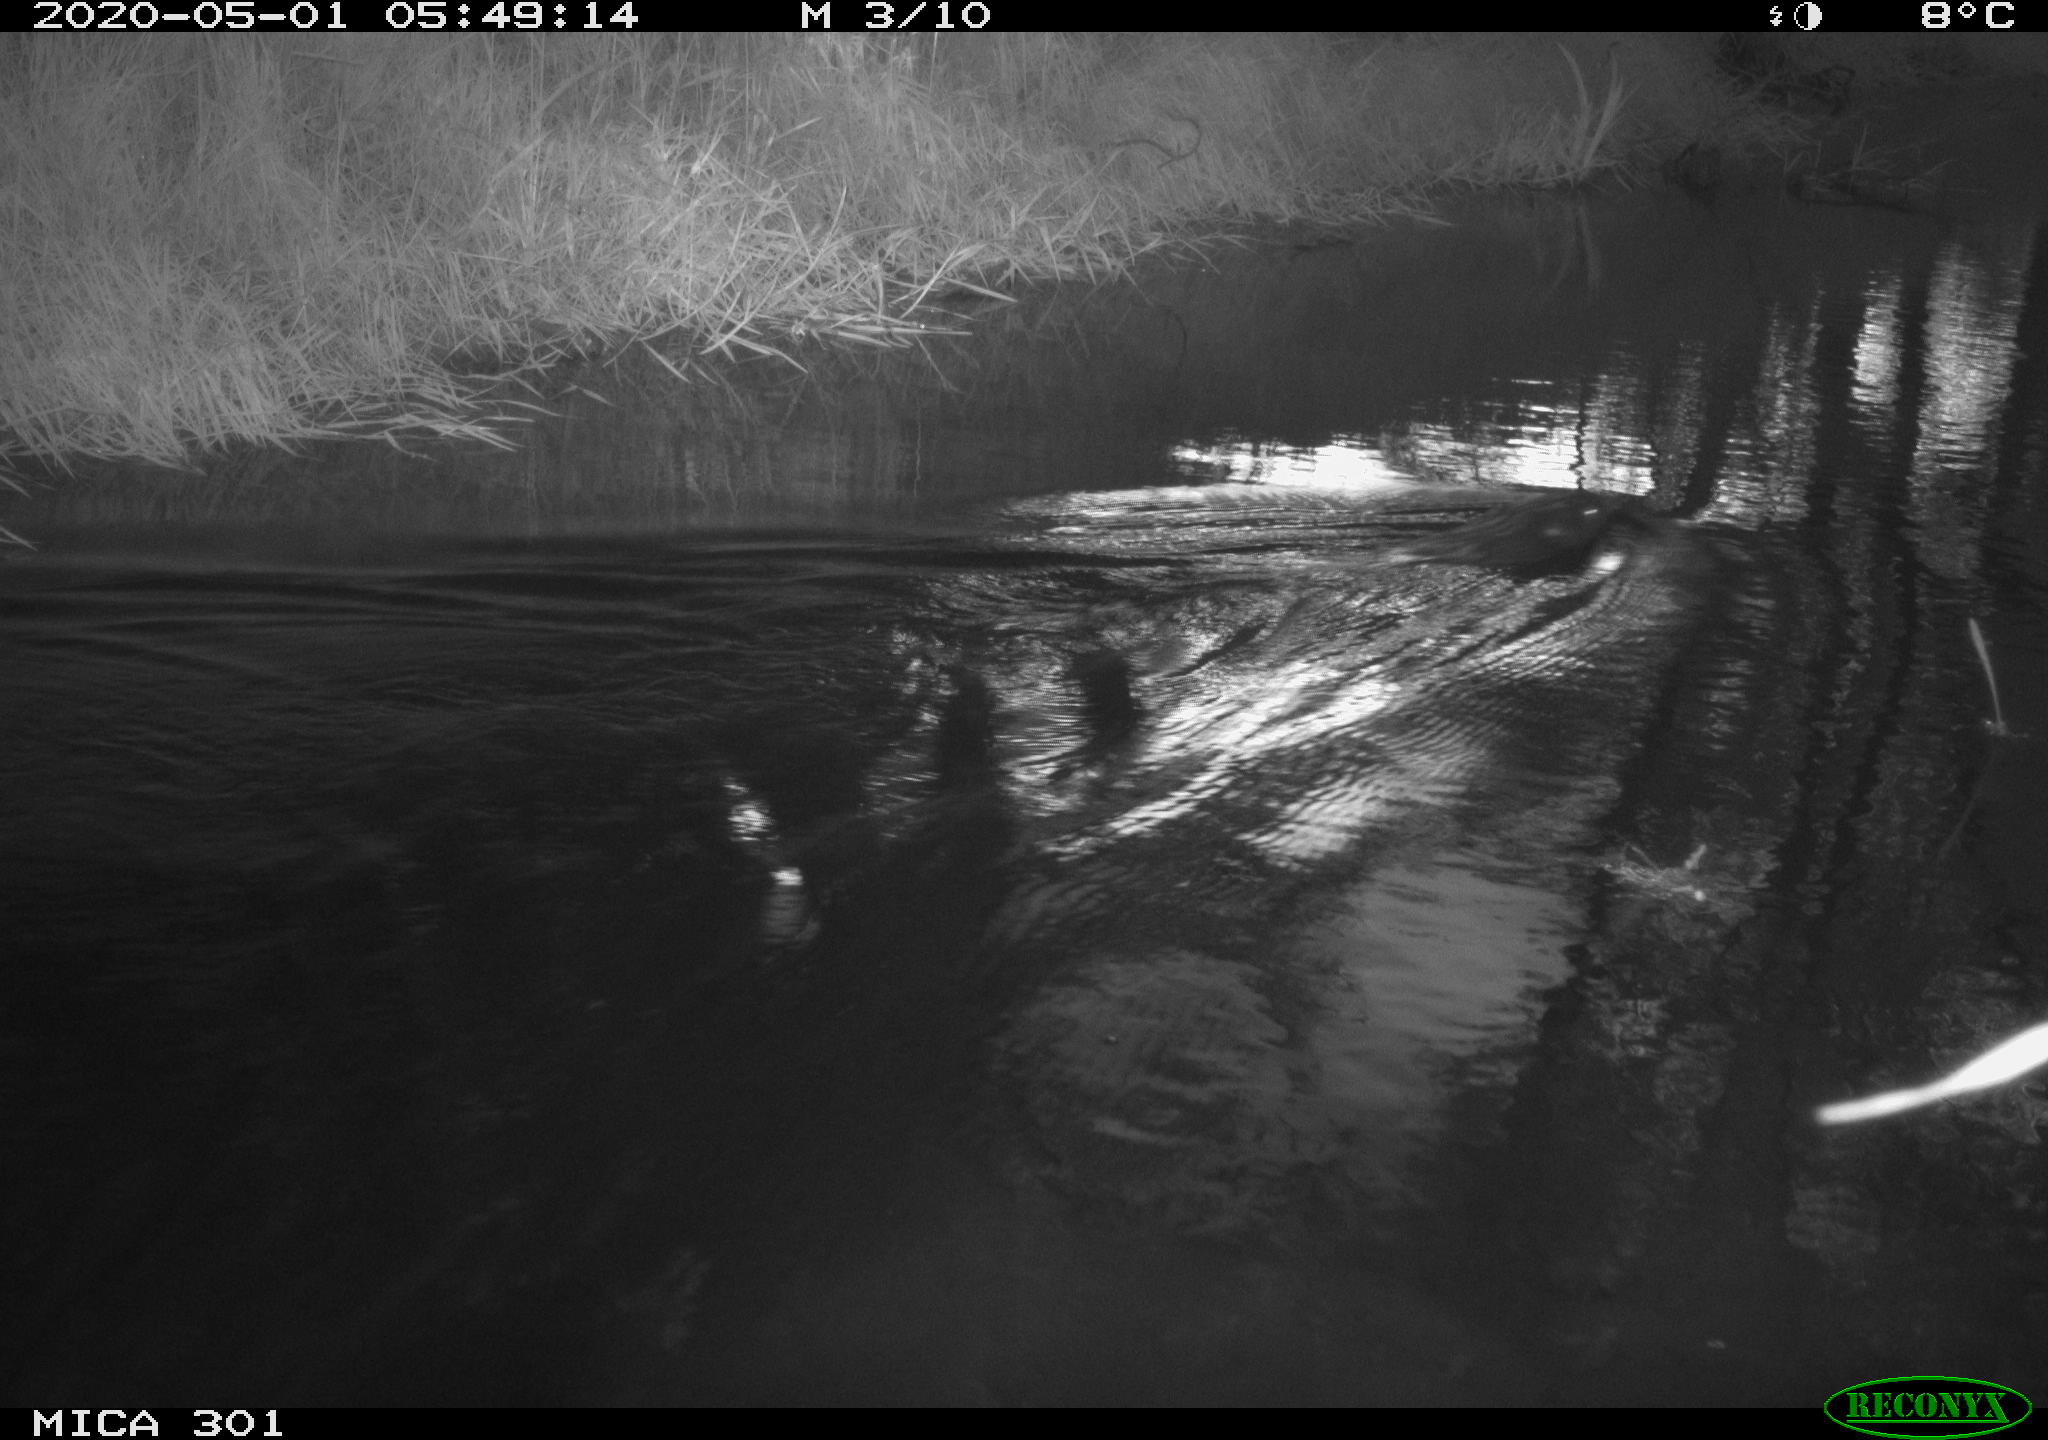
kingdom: Animalia
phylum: Chordata
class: Mammalia
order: Rodentia
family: Castoridae
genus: Castor
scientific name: Castor fiber
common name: Eurasian beaver
